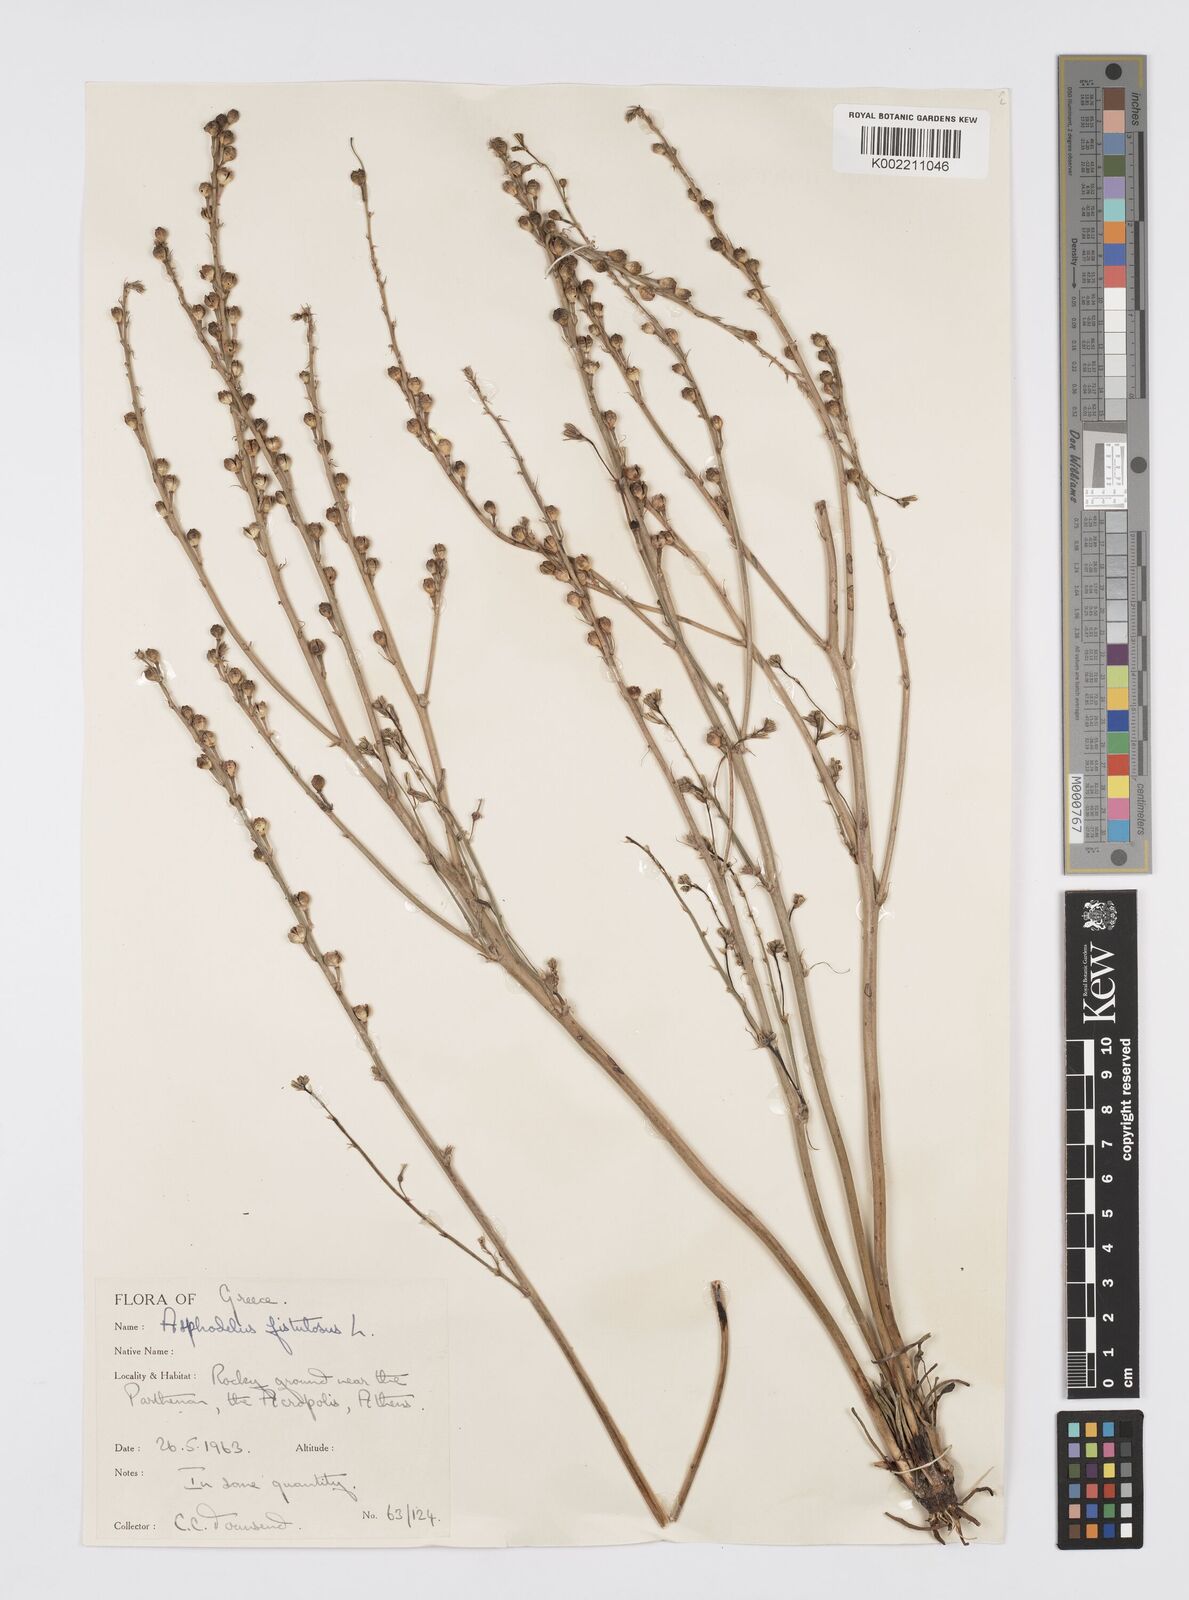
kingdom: Plantae
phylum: Tracheophyta
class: Liliopsida
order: Asparagales
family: Asphodelaceae
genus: Asphodelus
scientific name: Asphodelus fistulosus
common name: Onionweed
